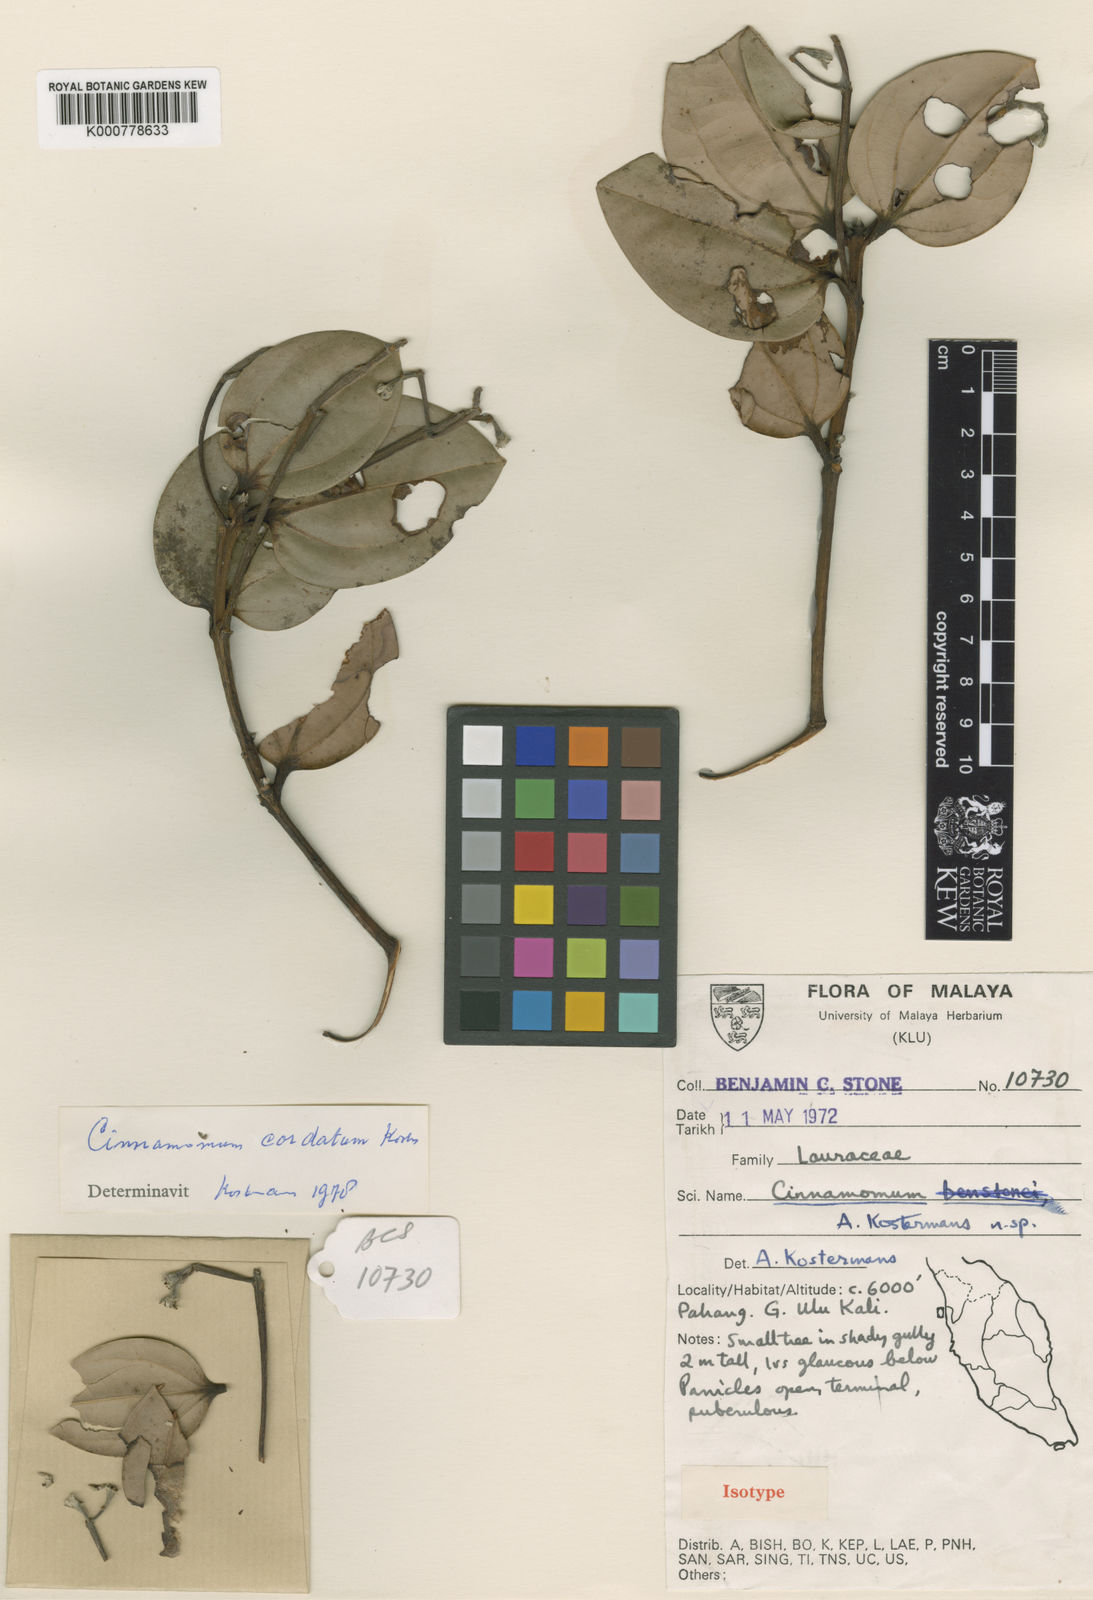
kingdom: Plantae
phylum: Tracheophyta
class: Magnoliopsida
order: Laurales
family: Lauraceae
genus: Cinnamomum
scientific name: Cinnamomum cordatum
